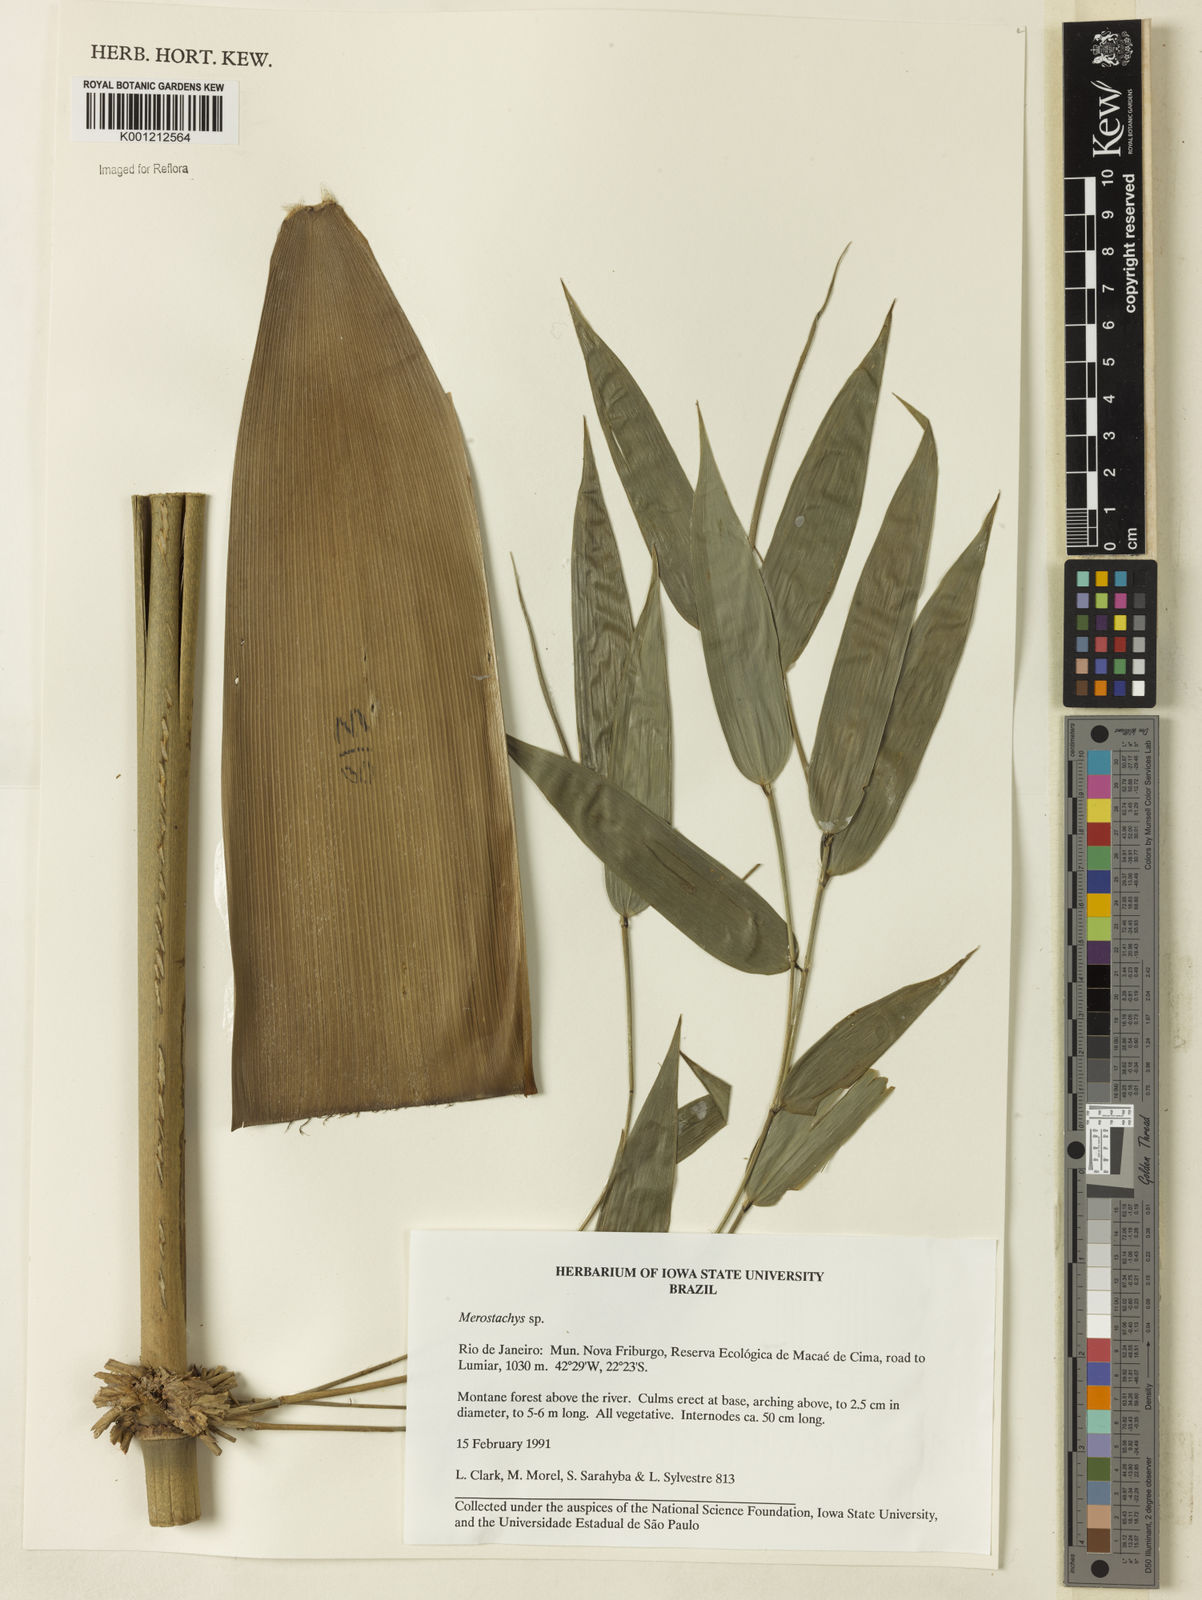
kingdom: Plantae
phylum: Tracheophyta
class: Liliopsida
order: Poales
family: Poaceae
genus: Merostachys
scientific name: Merostachys
